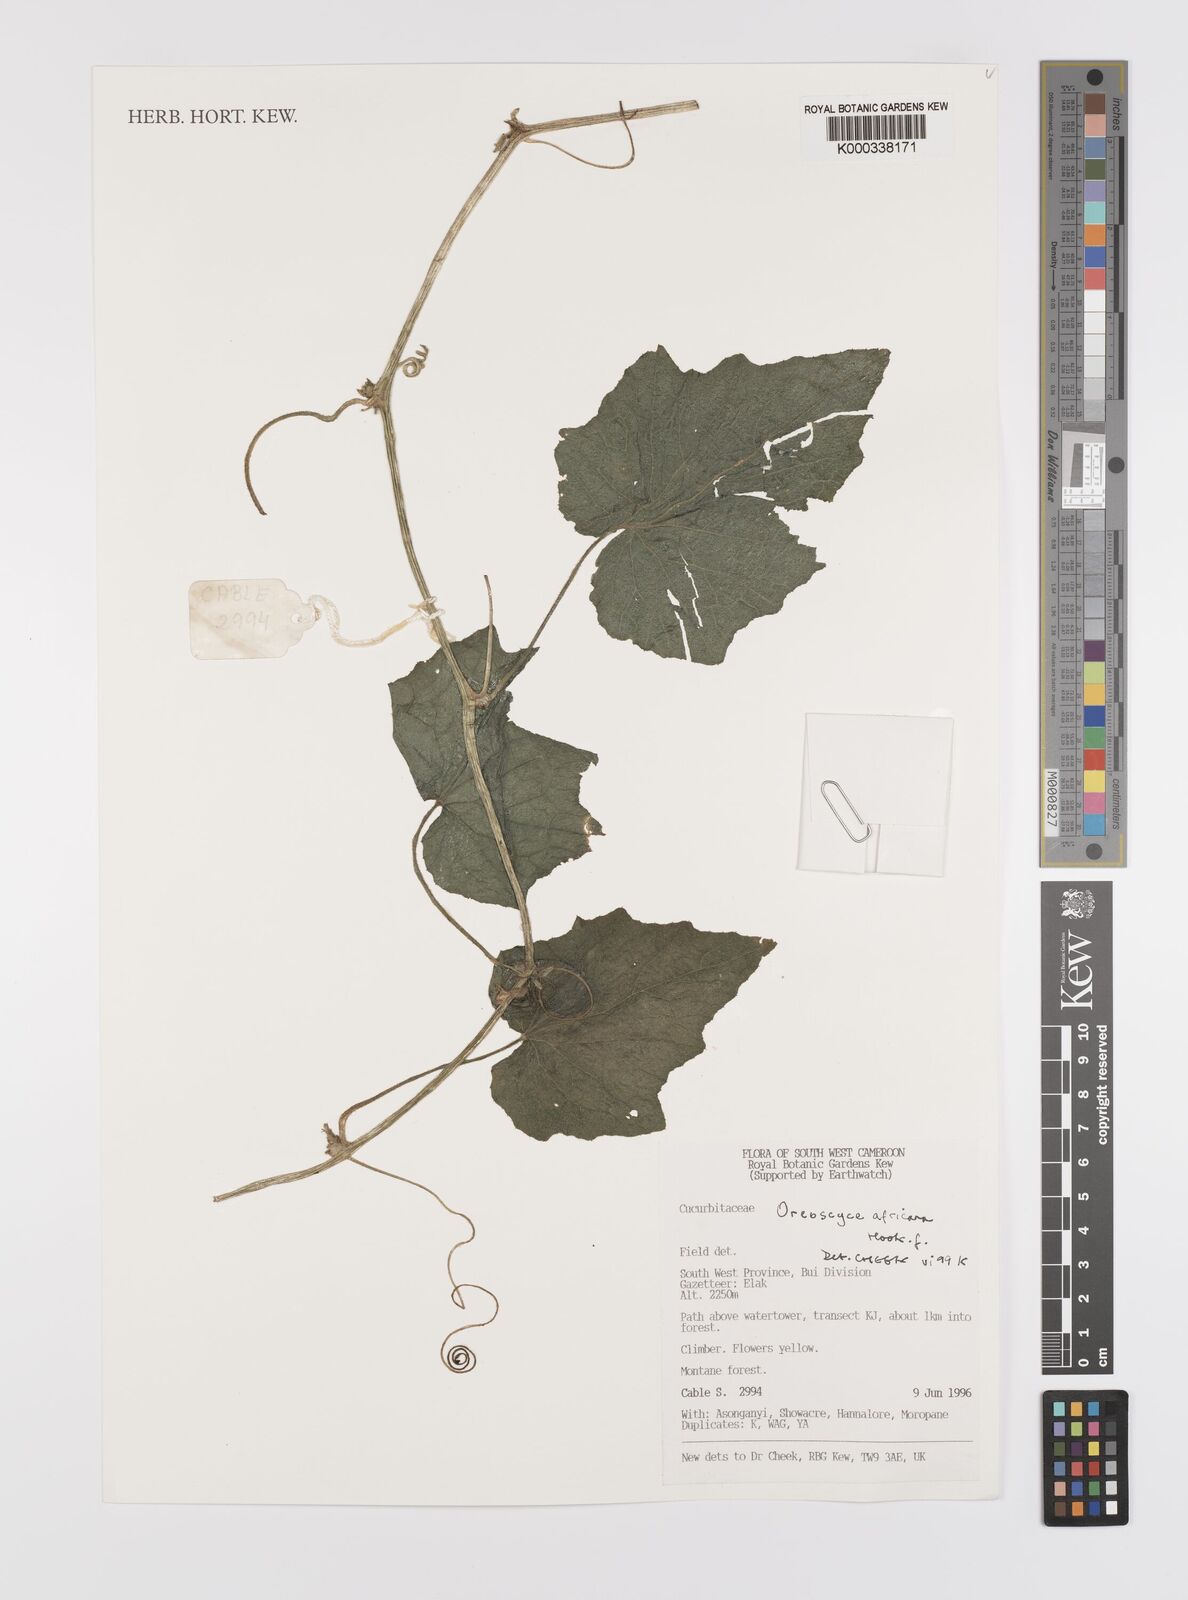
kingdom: Plantae
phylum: Tracheophyta
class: Magnoliopsida
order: Cucurbitales
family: Cucurbitaceae
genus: Cucumis
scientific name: Cucumis oreosyce
